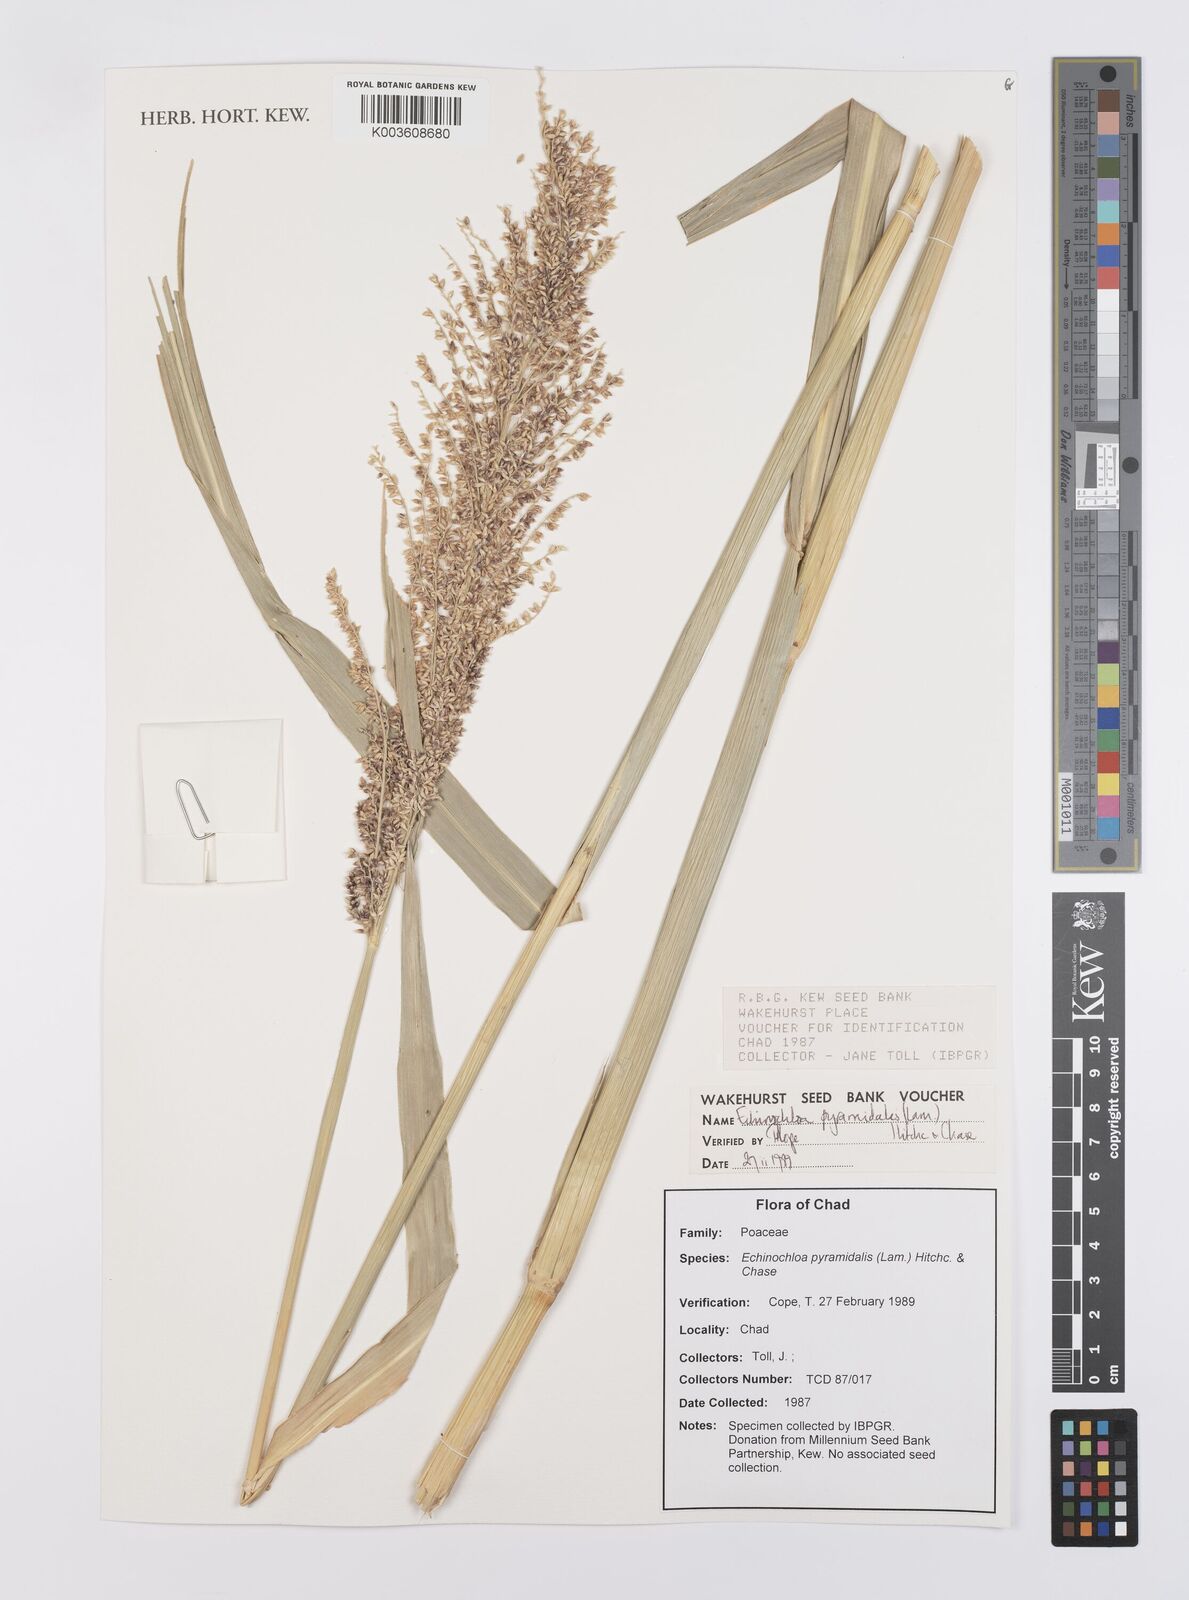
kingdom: Plantae
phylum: Tracheophyta
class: Liliopsida
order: Poales
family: Poaceae
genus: Echinochloa
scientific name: Echinochloa pyramidalis
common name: Antelope grass
